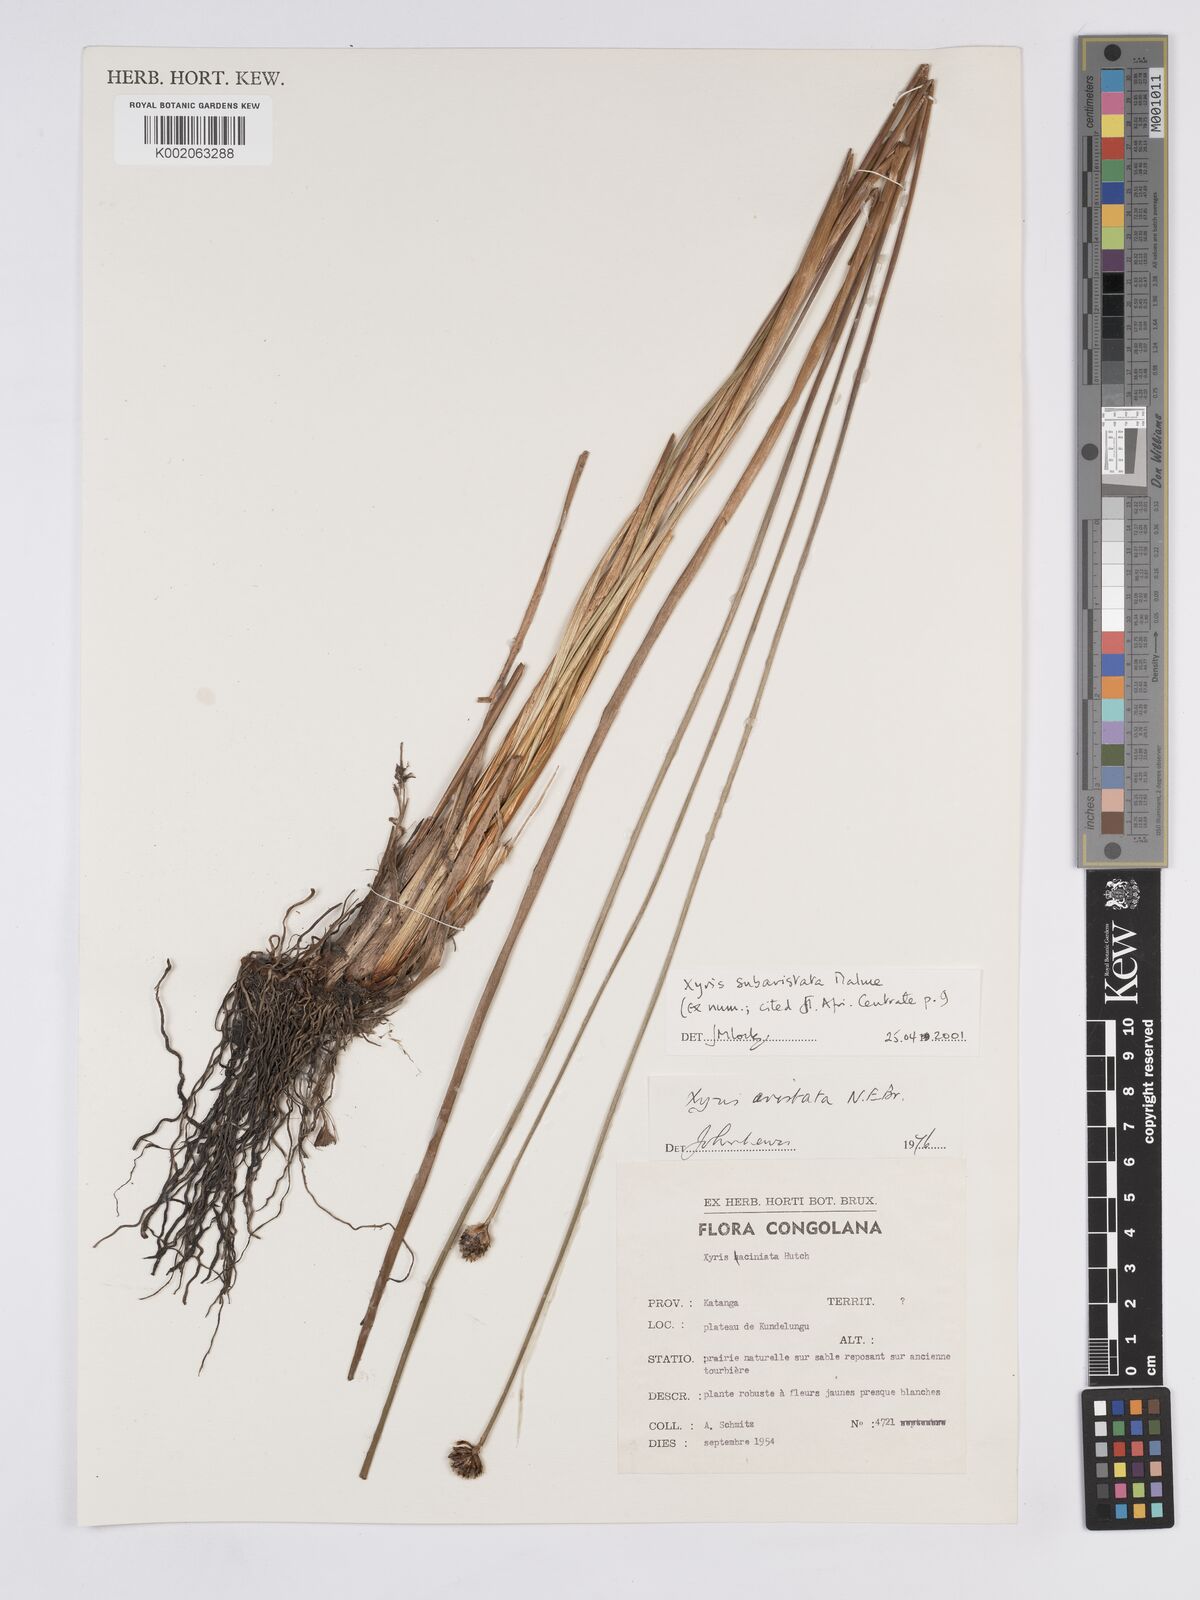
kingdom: Plantae
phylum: Tracheophyta
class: Liliopsida
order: Poales
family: Xyridaceae
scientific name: Xyridaceae
